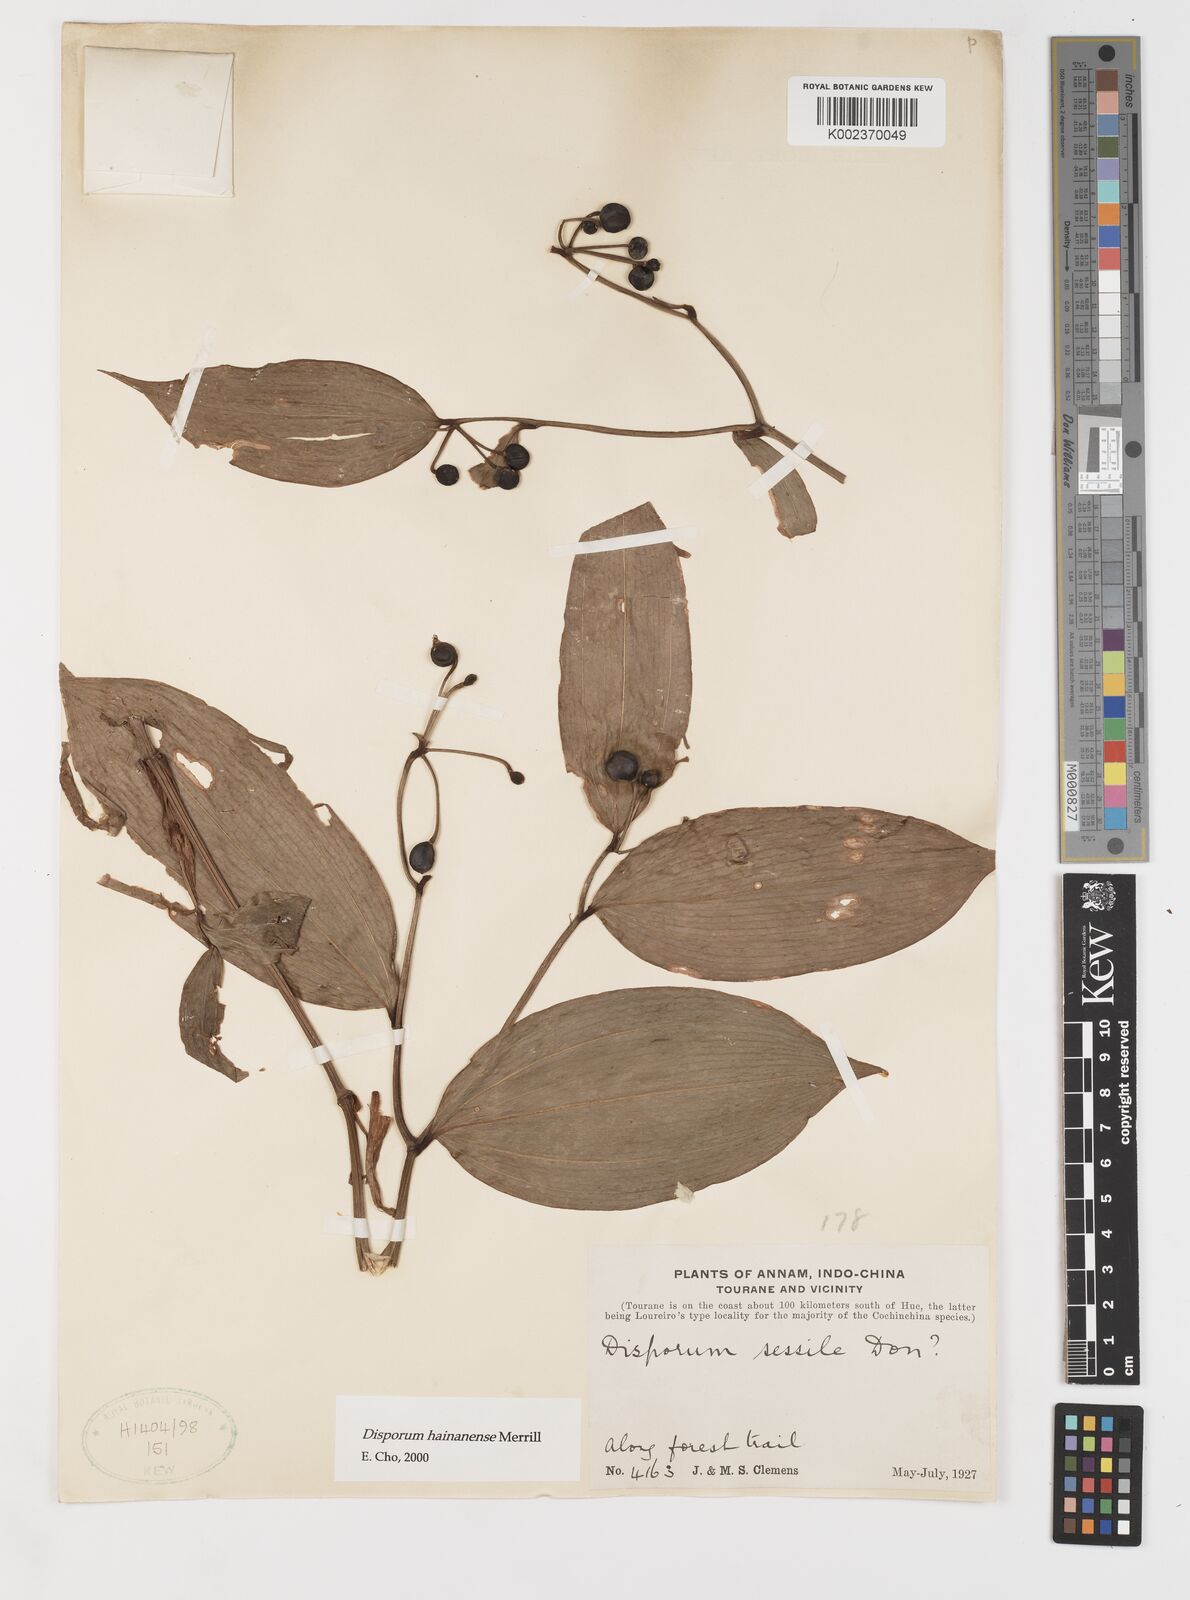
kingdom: Plantae
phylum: Tracheophyta
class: Liliopsida
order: Liliales
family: Colchicaceae
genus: Disporum
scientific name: Disporum hainanense
